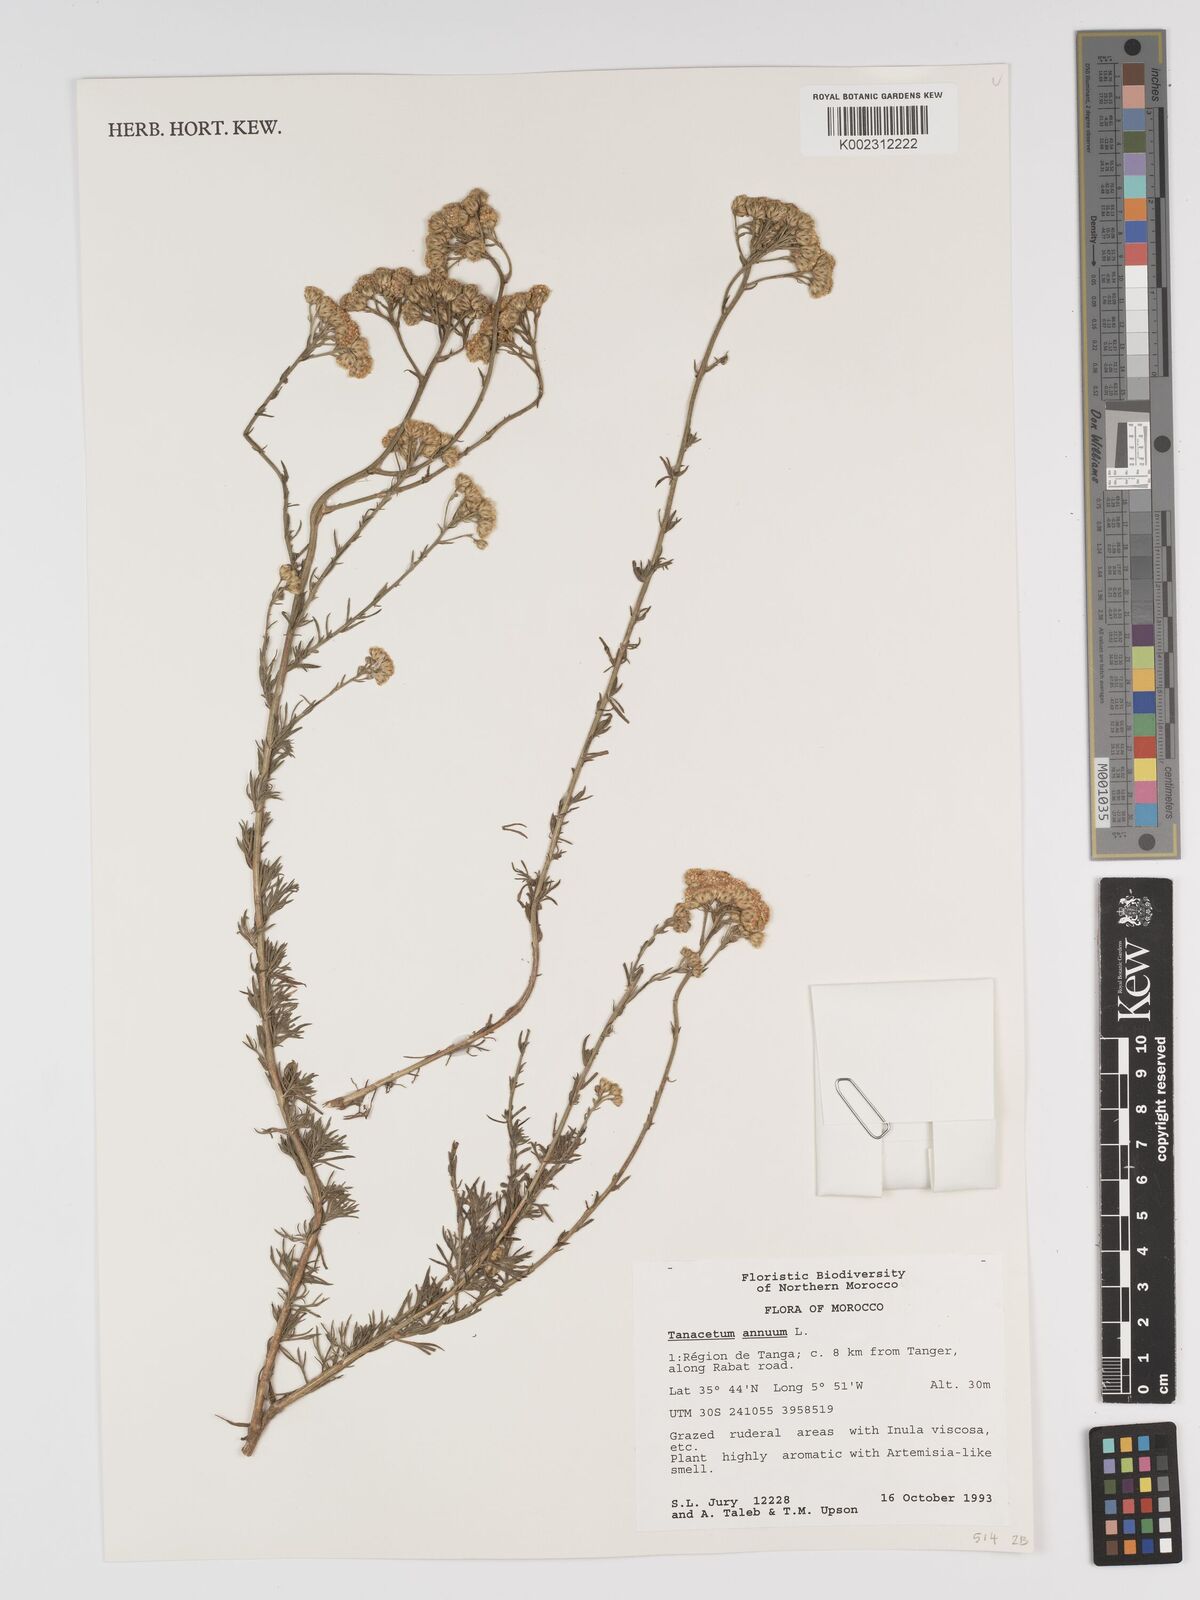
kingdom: Plantae
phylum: Tracheophyta
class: Magnoliopsida
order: Asterales
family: Asteraceae
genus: Vogtia
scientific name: Vogtia annua
